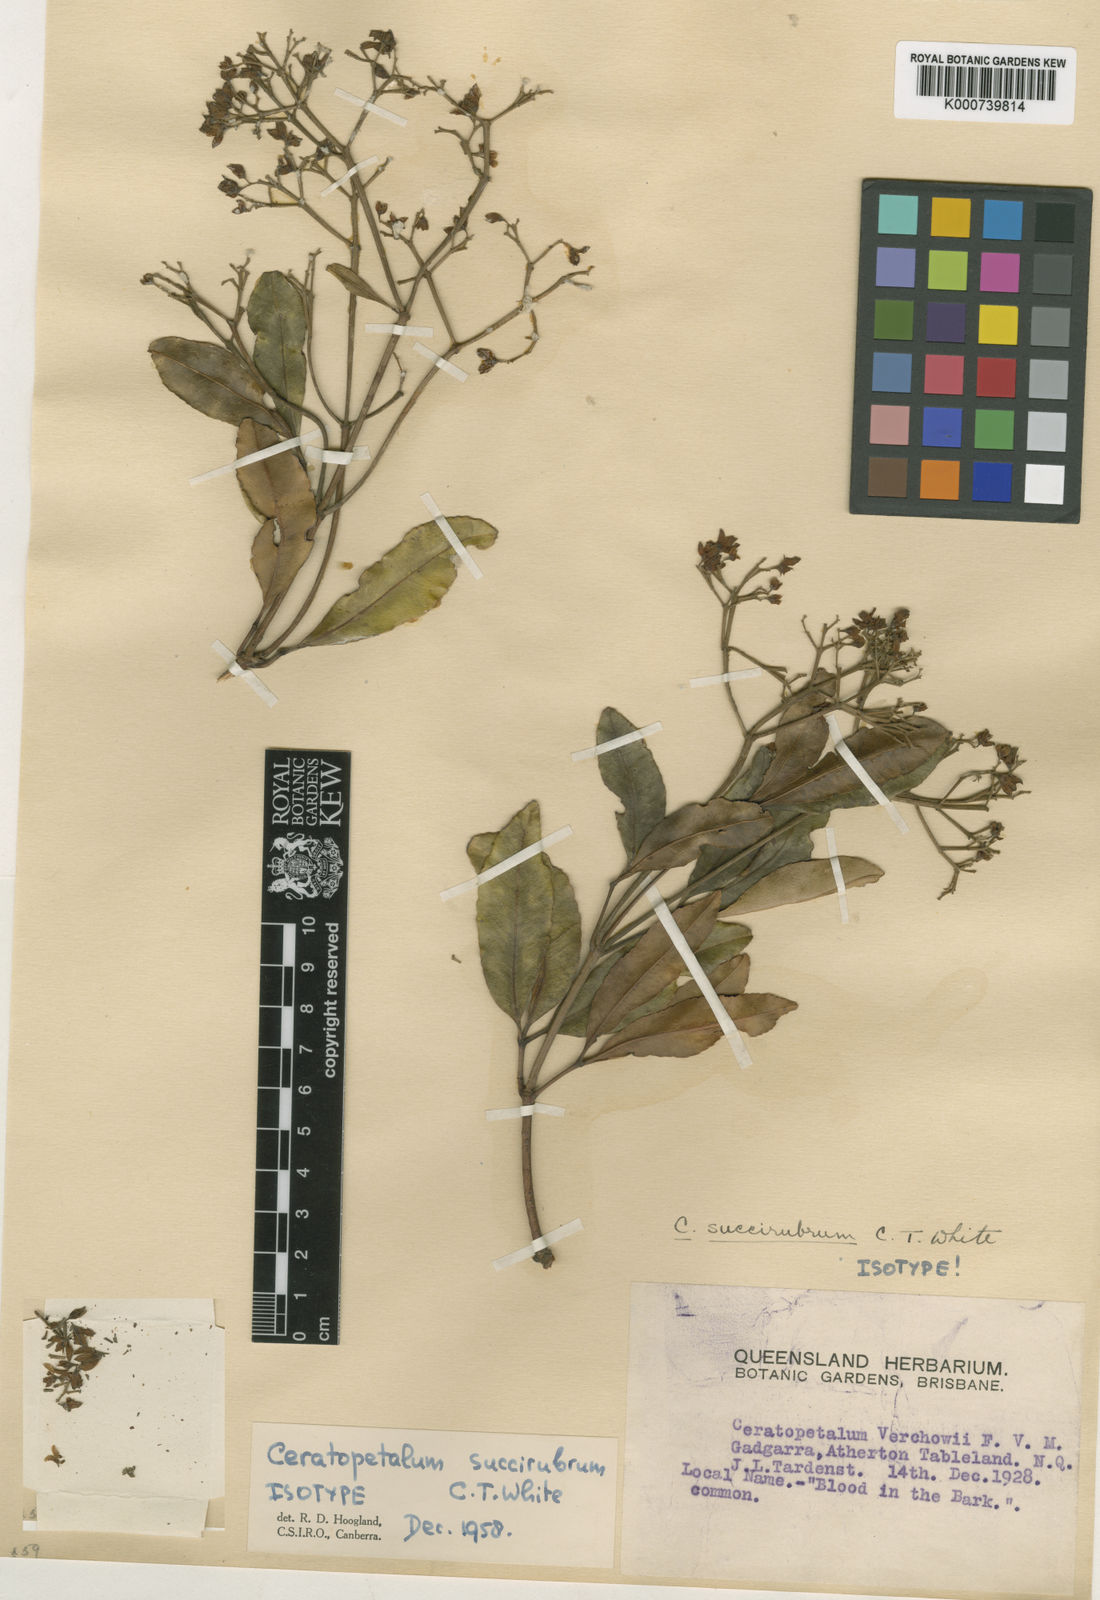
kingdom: Plantae
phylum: Tracheophyta
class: Magnoliopsida
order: Oxalidales
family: Cunoniaceae
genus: Ceratopetalum
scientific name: Ceratopetalum virchowii
